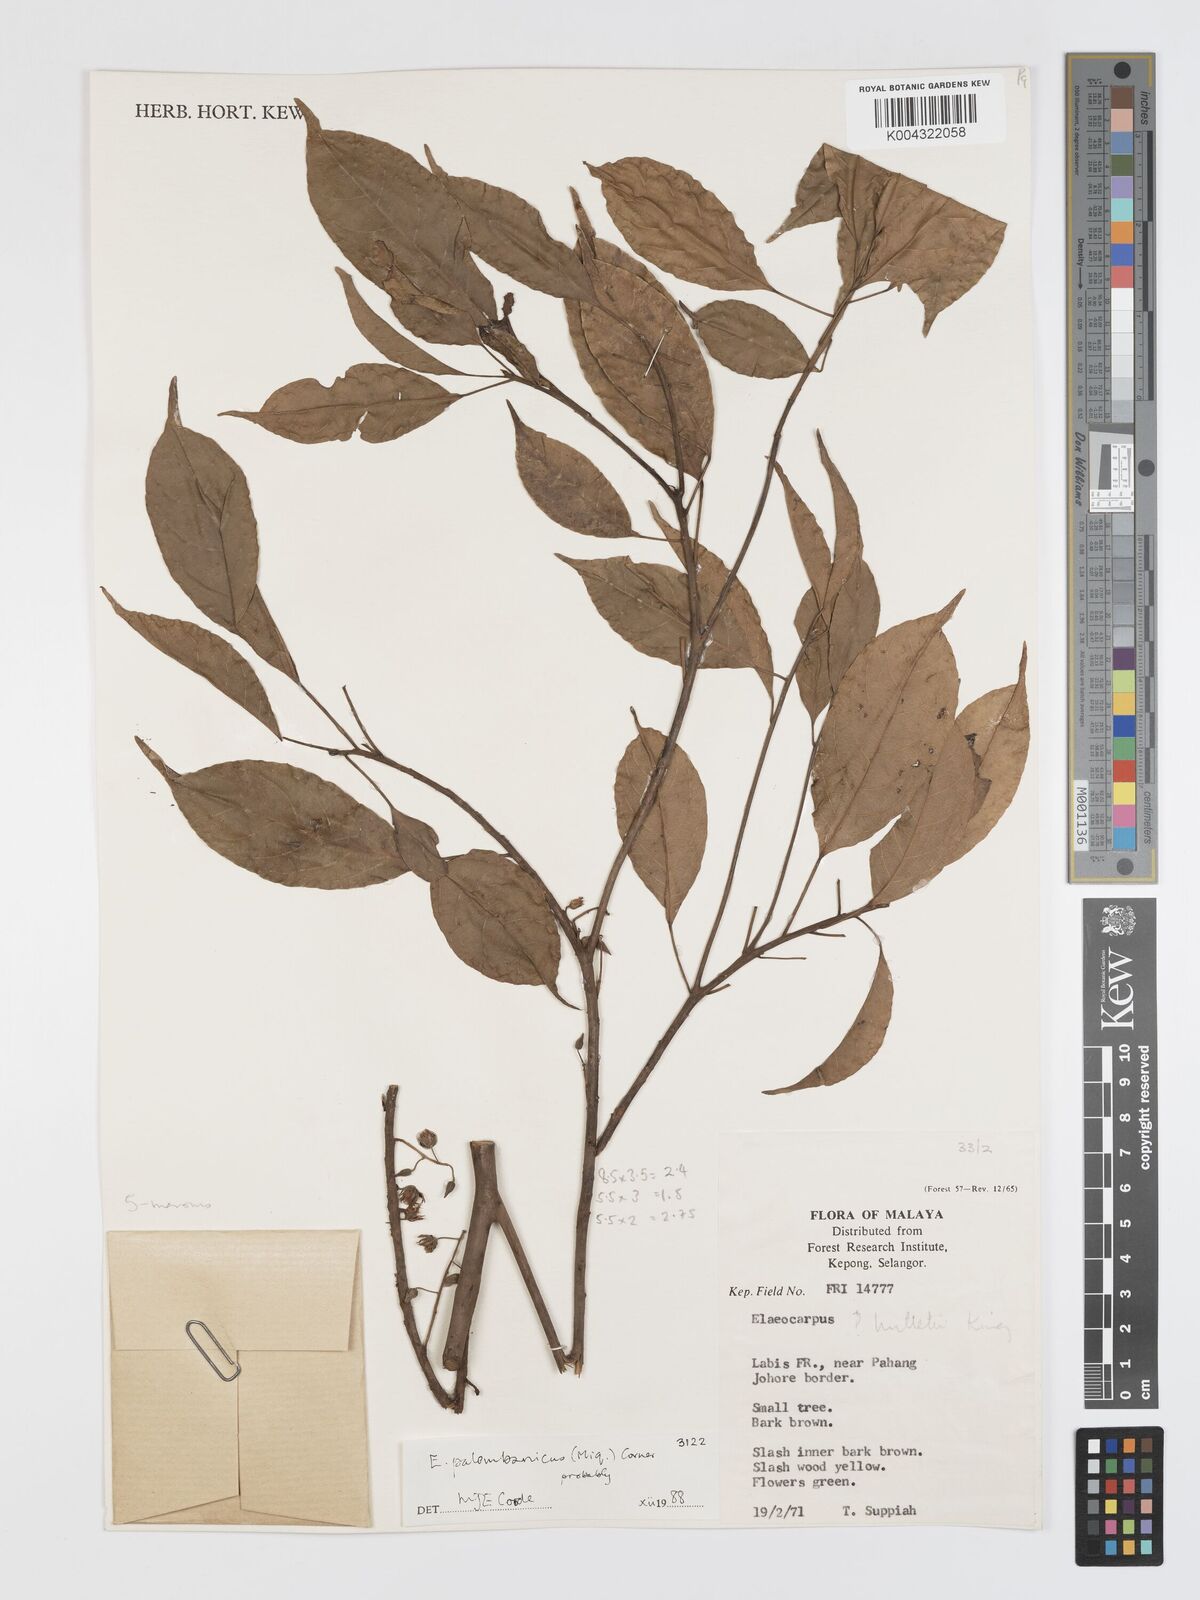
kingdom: Plantae
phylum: Tracheophyta
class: Magnoliopsida
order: Oxalidales
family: Elaeocarpaceae
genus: Elaeocarpus
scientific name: Elaeocarpus palembanicus
